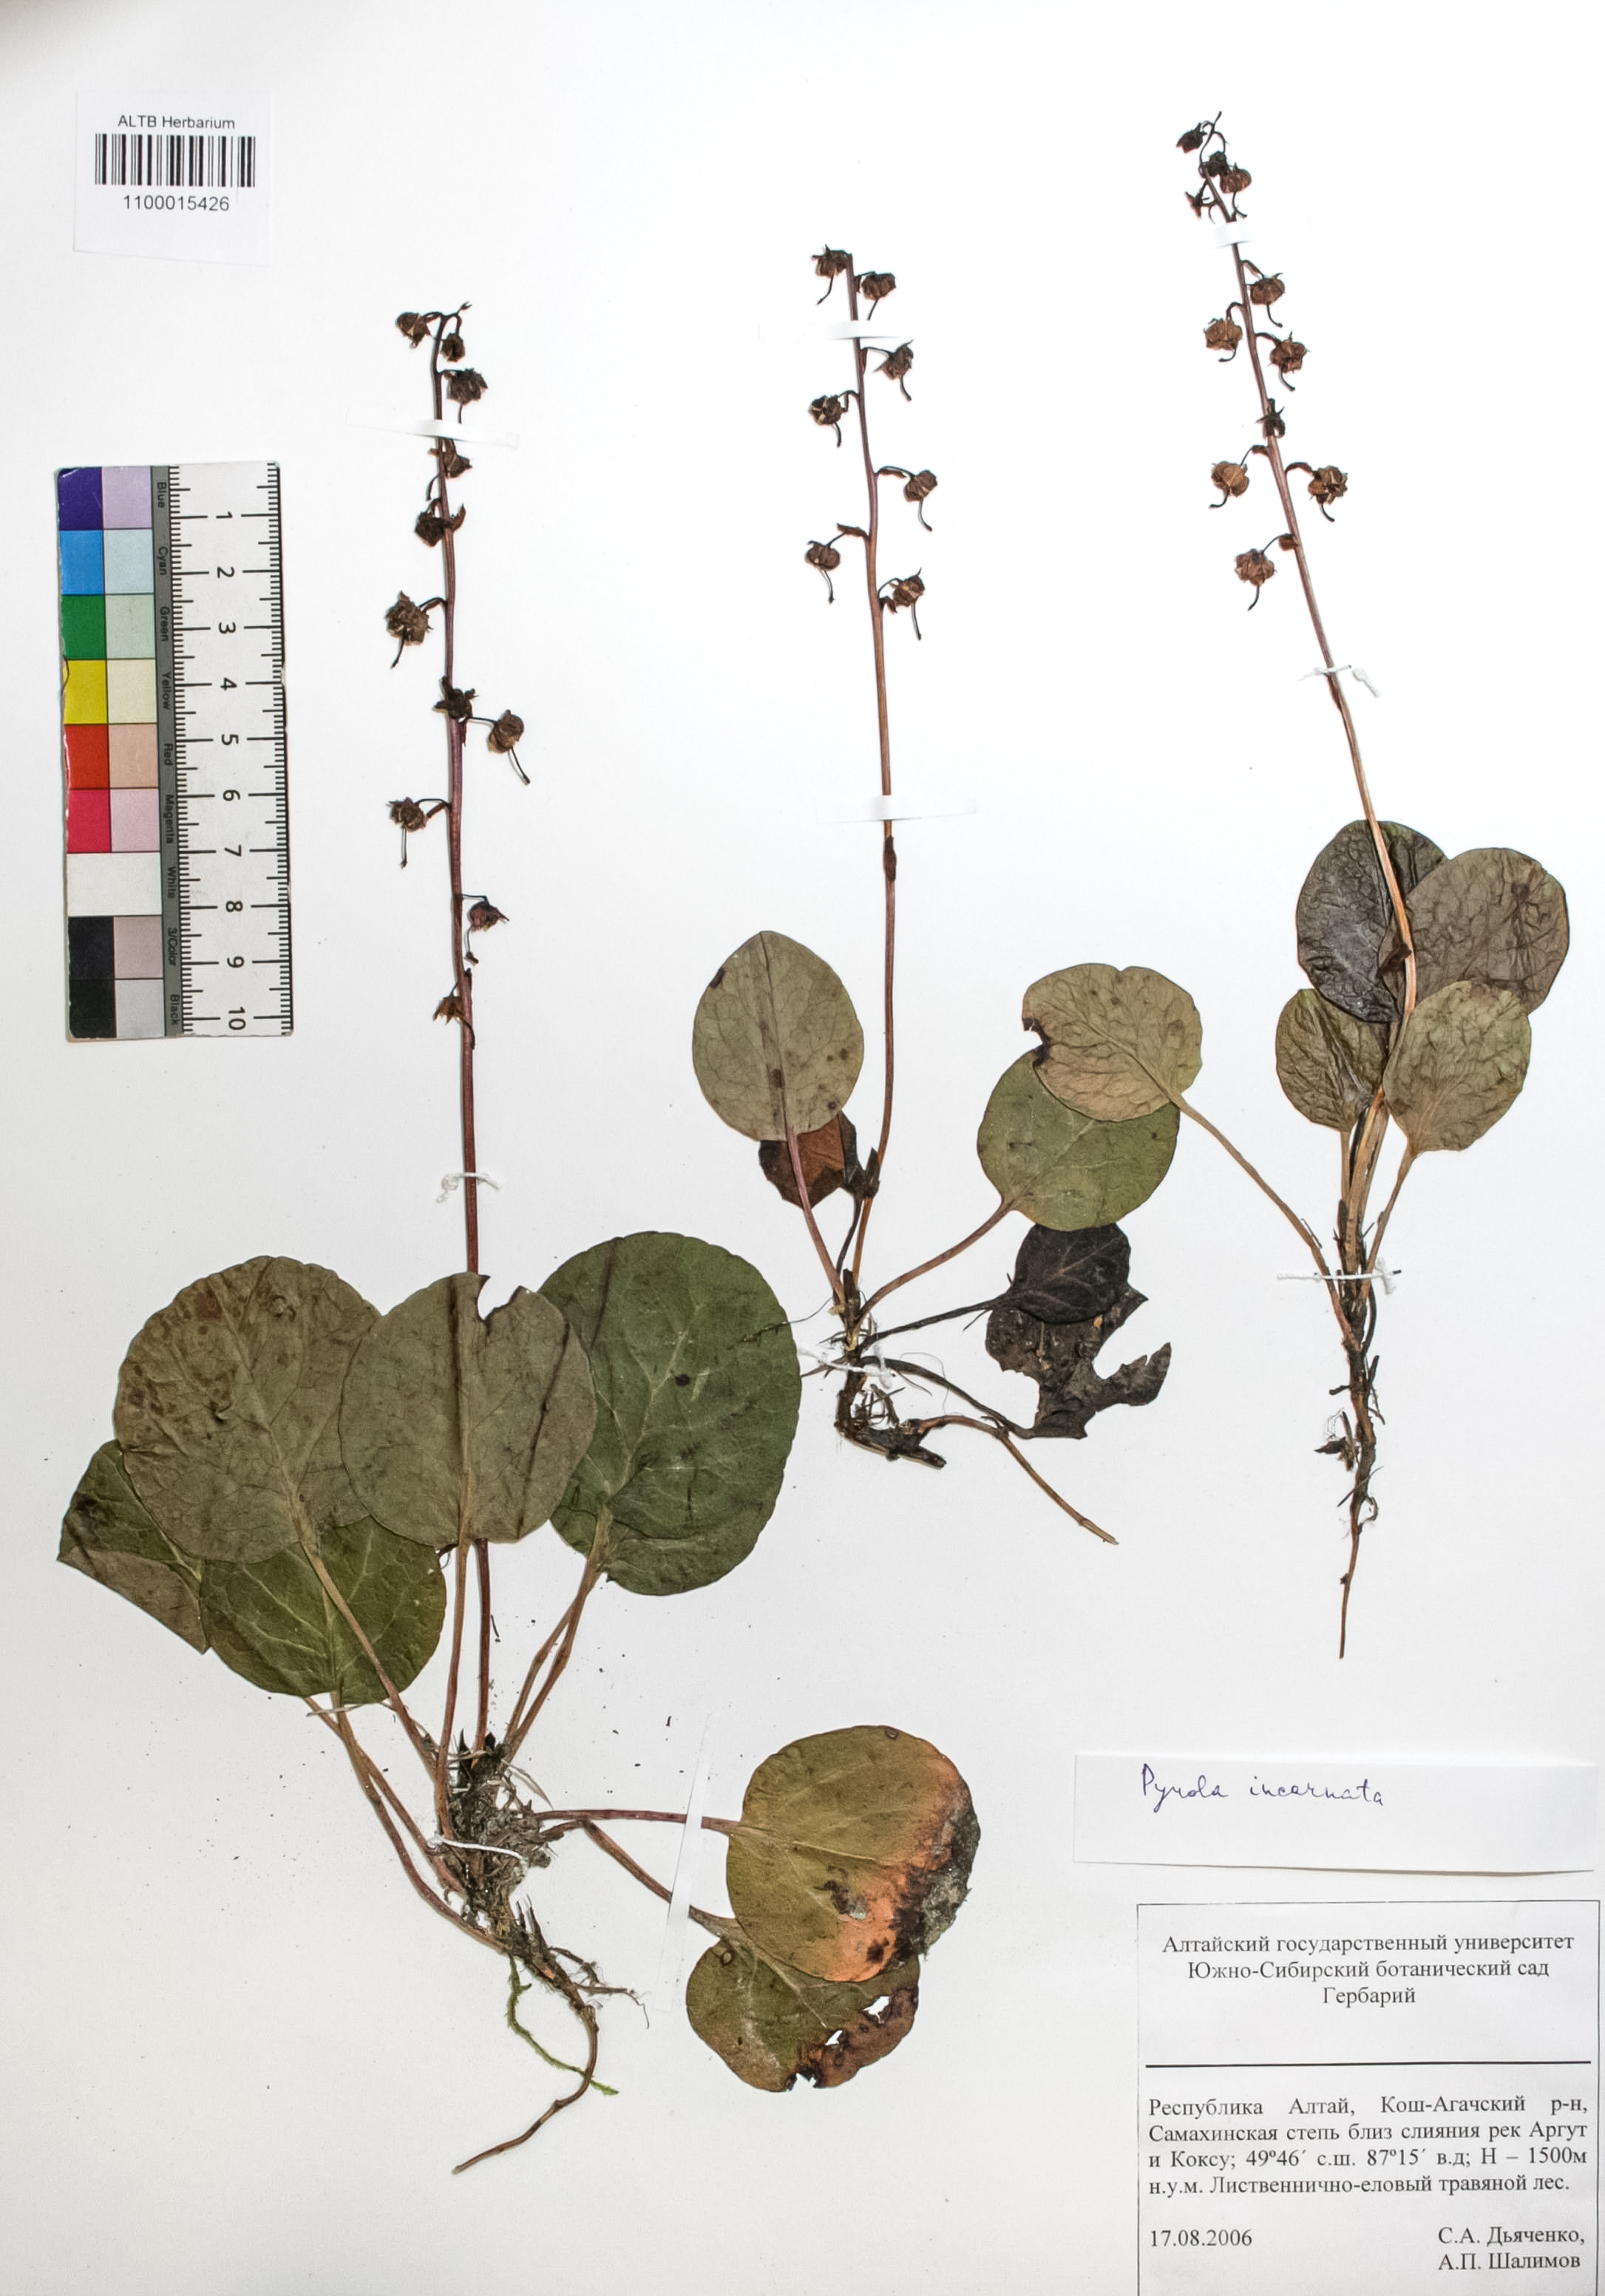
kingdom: Plantae
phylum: Tracheophyta
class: Magnoliopsida
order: Ericales
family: Ericaceae
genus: Pyrola
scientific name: Pyrola asarifolia
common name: Bog wintergreen
